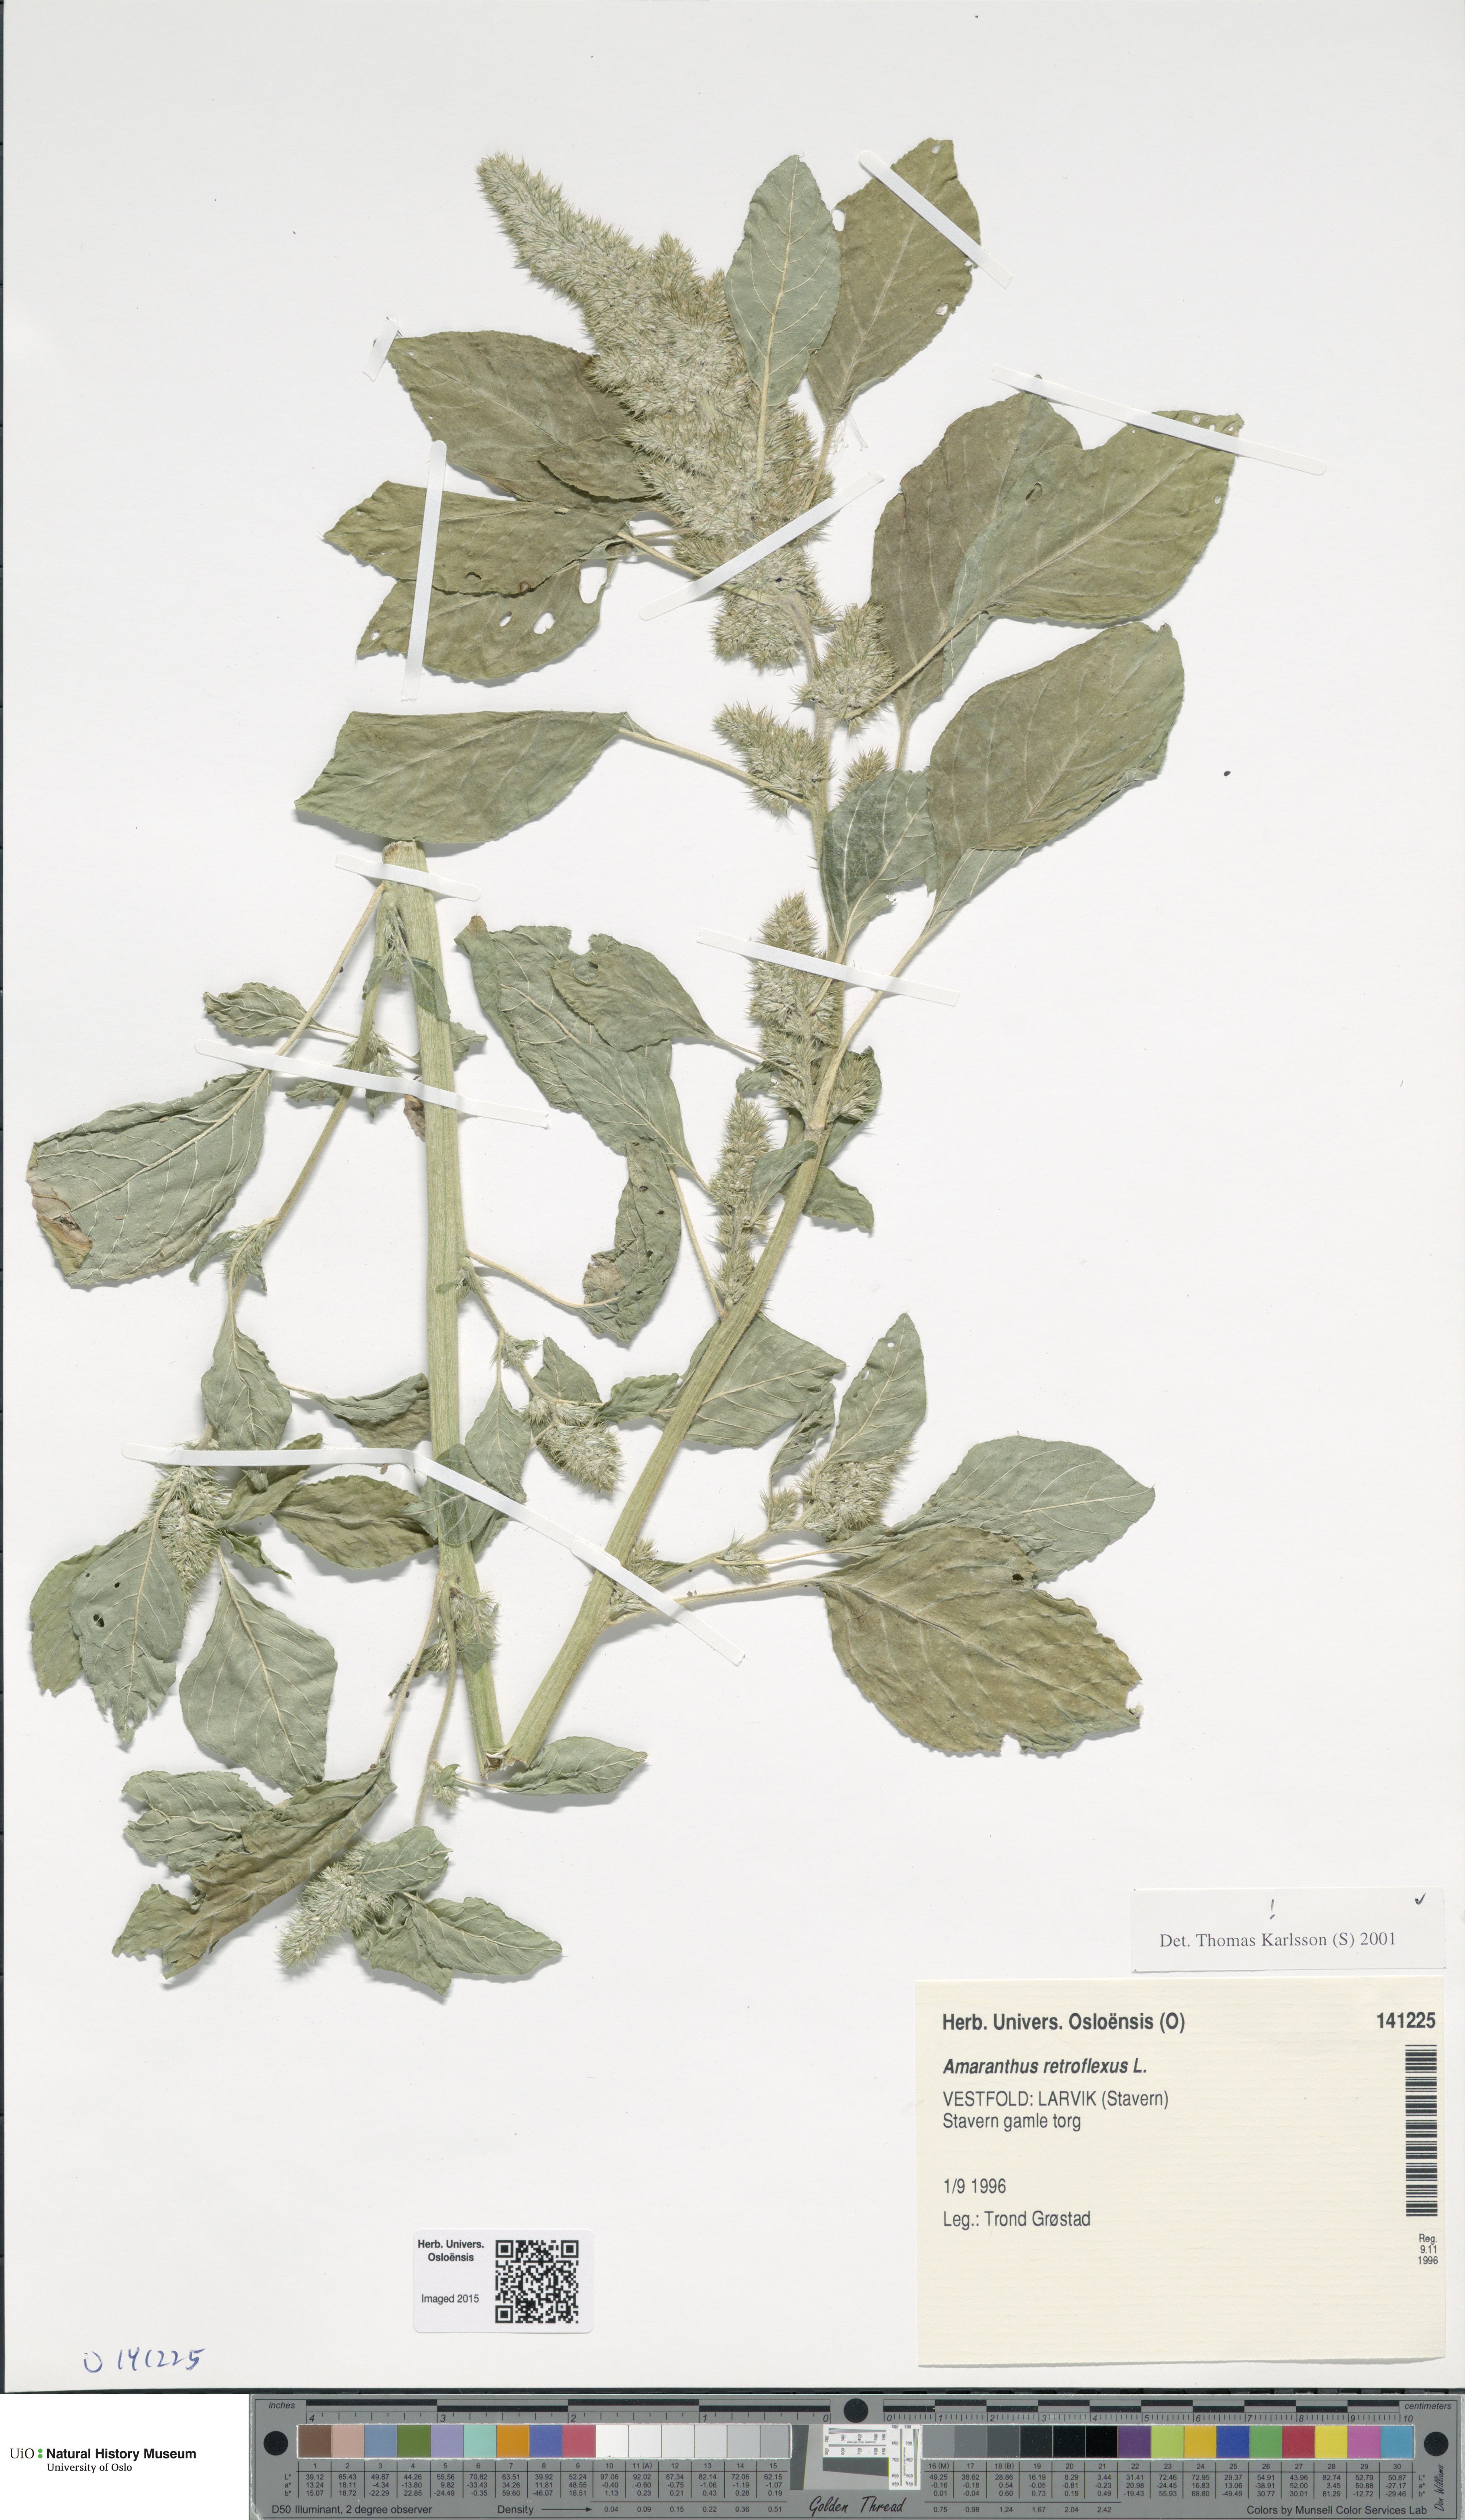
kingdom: Plantae
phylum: Tracheophyta
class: Magnoliopsida
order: Caryophyllales
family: Amaranthaceae
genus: Amaranthus
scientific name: Amaranthus retroflexus
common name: Redroot amaranth
